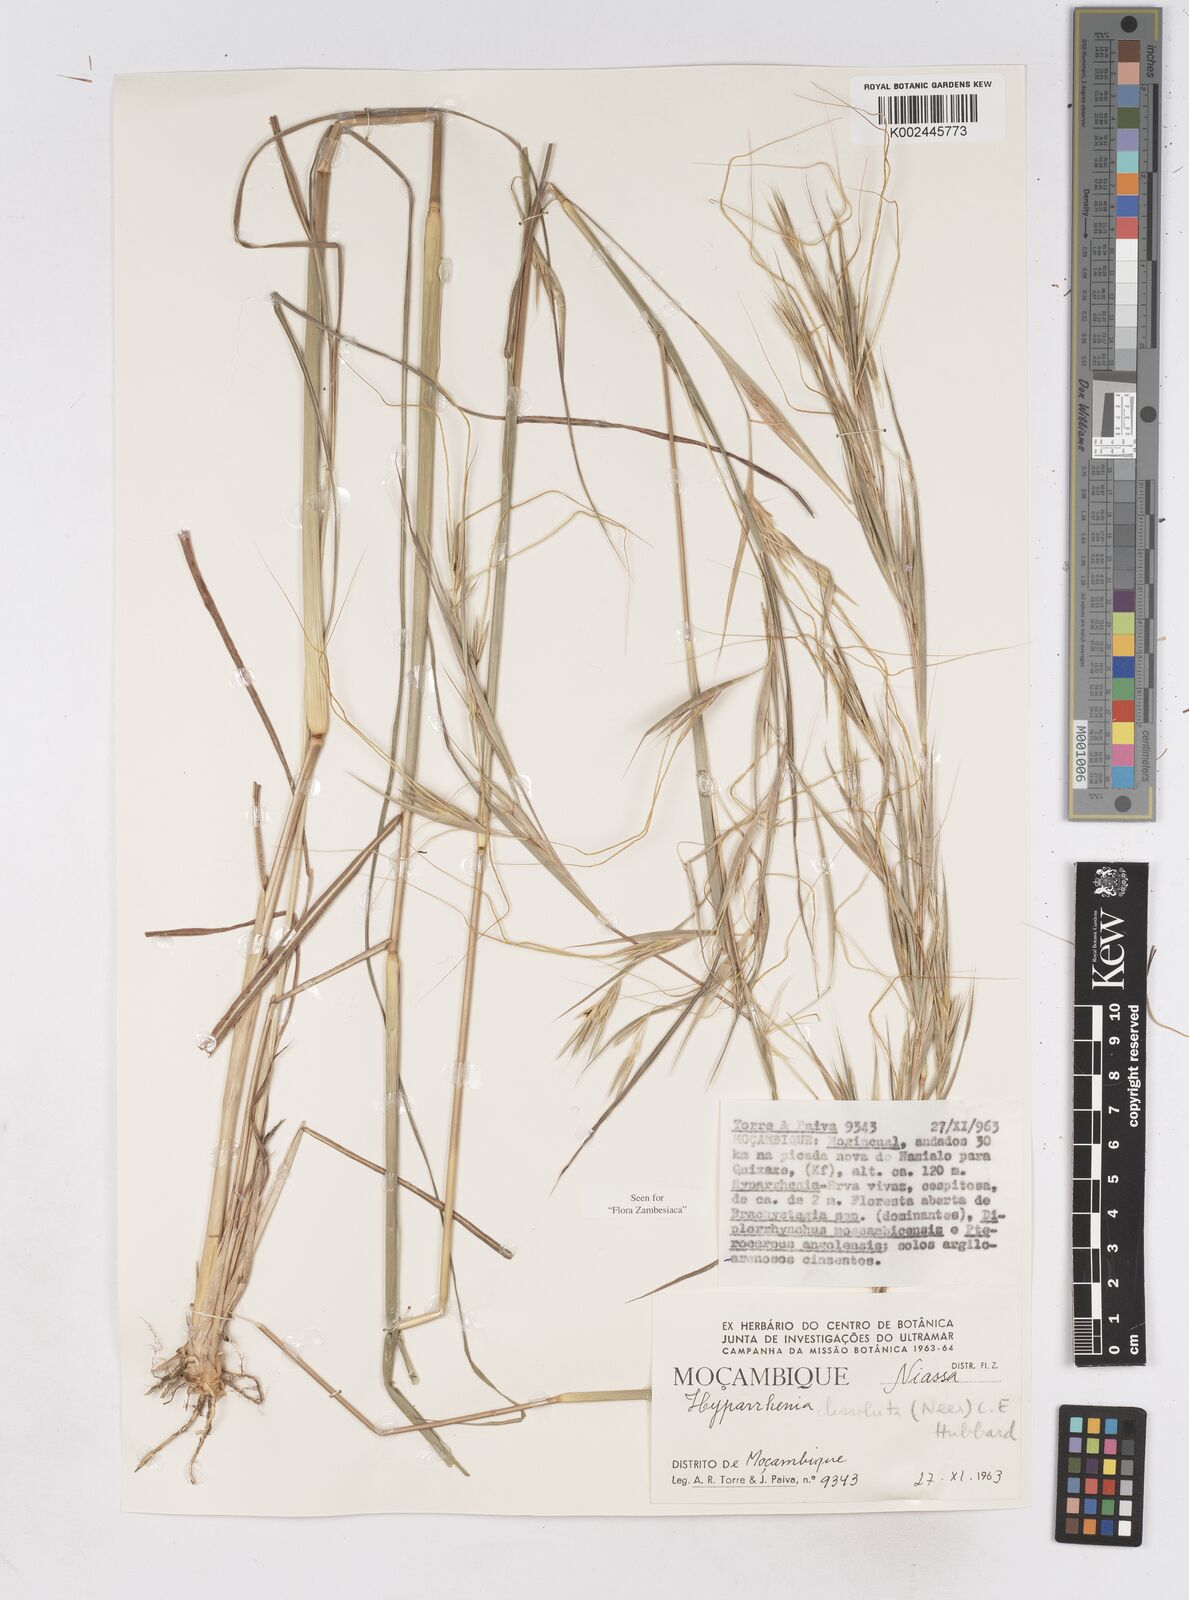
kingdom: Plantae
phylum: Tracheophyta
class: Liliopsida
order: Poales
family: Poaceae
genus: Hyperthelia
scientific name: Hyperthelia dissoluta
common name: Yellow thatching grass
